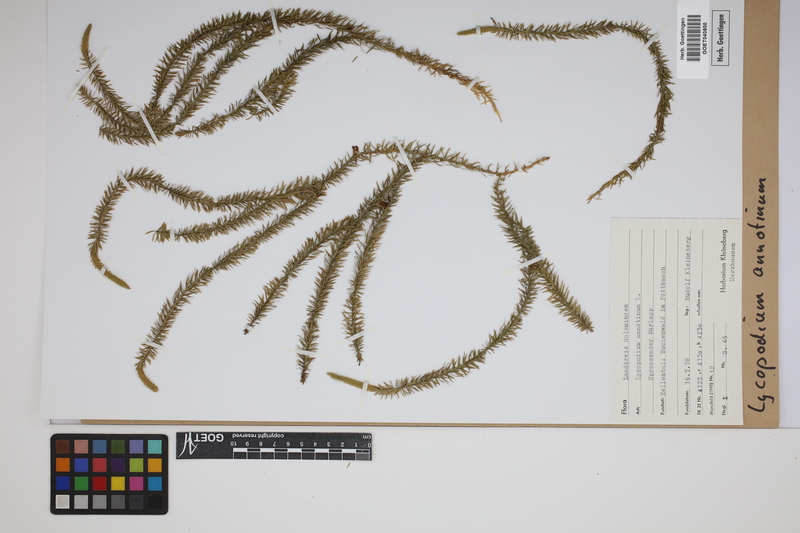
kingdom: Plantae
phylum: Tracheophyta
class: Lycopodiopsida
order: Lycopodiales
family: Lycopodiaceae
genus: Spinulum
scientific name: Spinulum annotinum
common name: Interrupted club-moss
